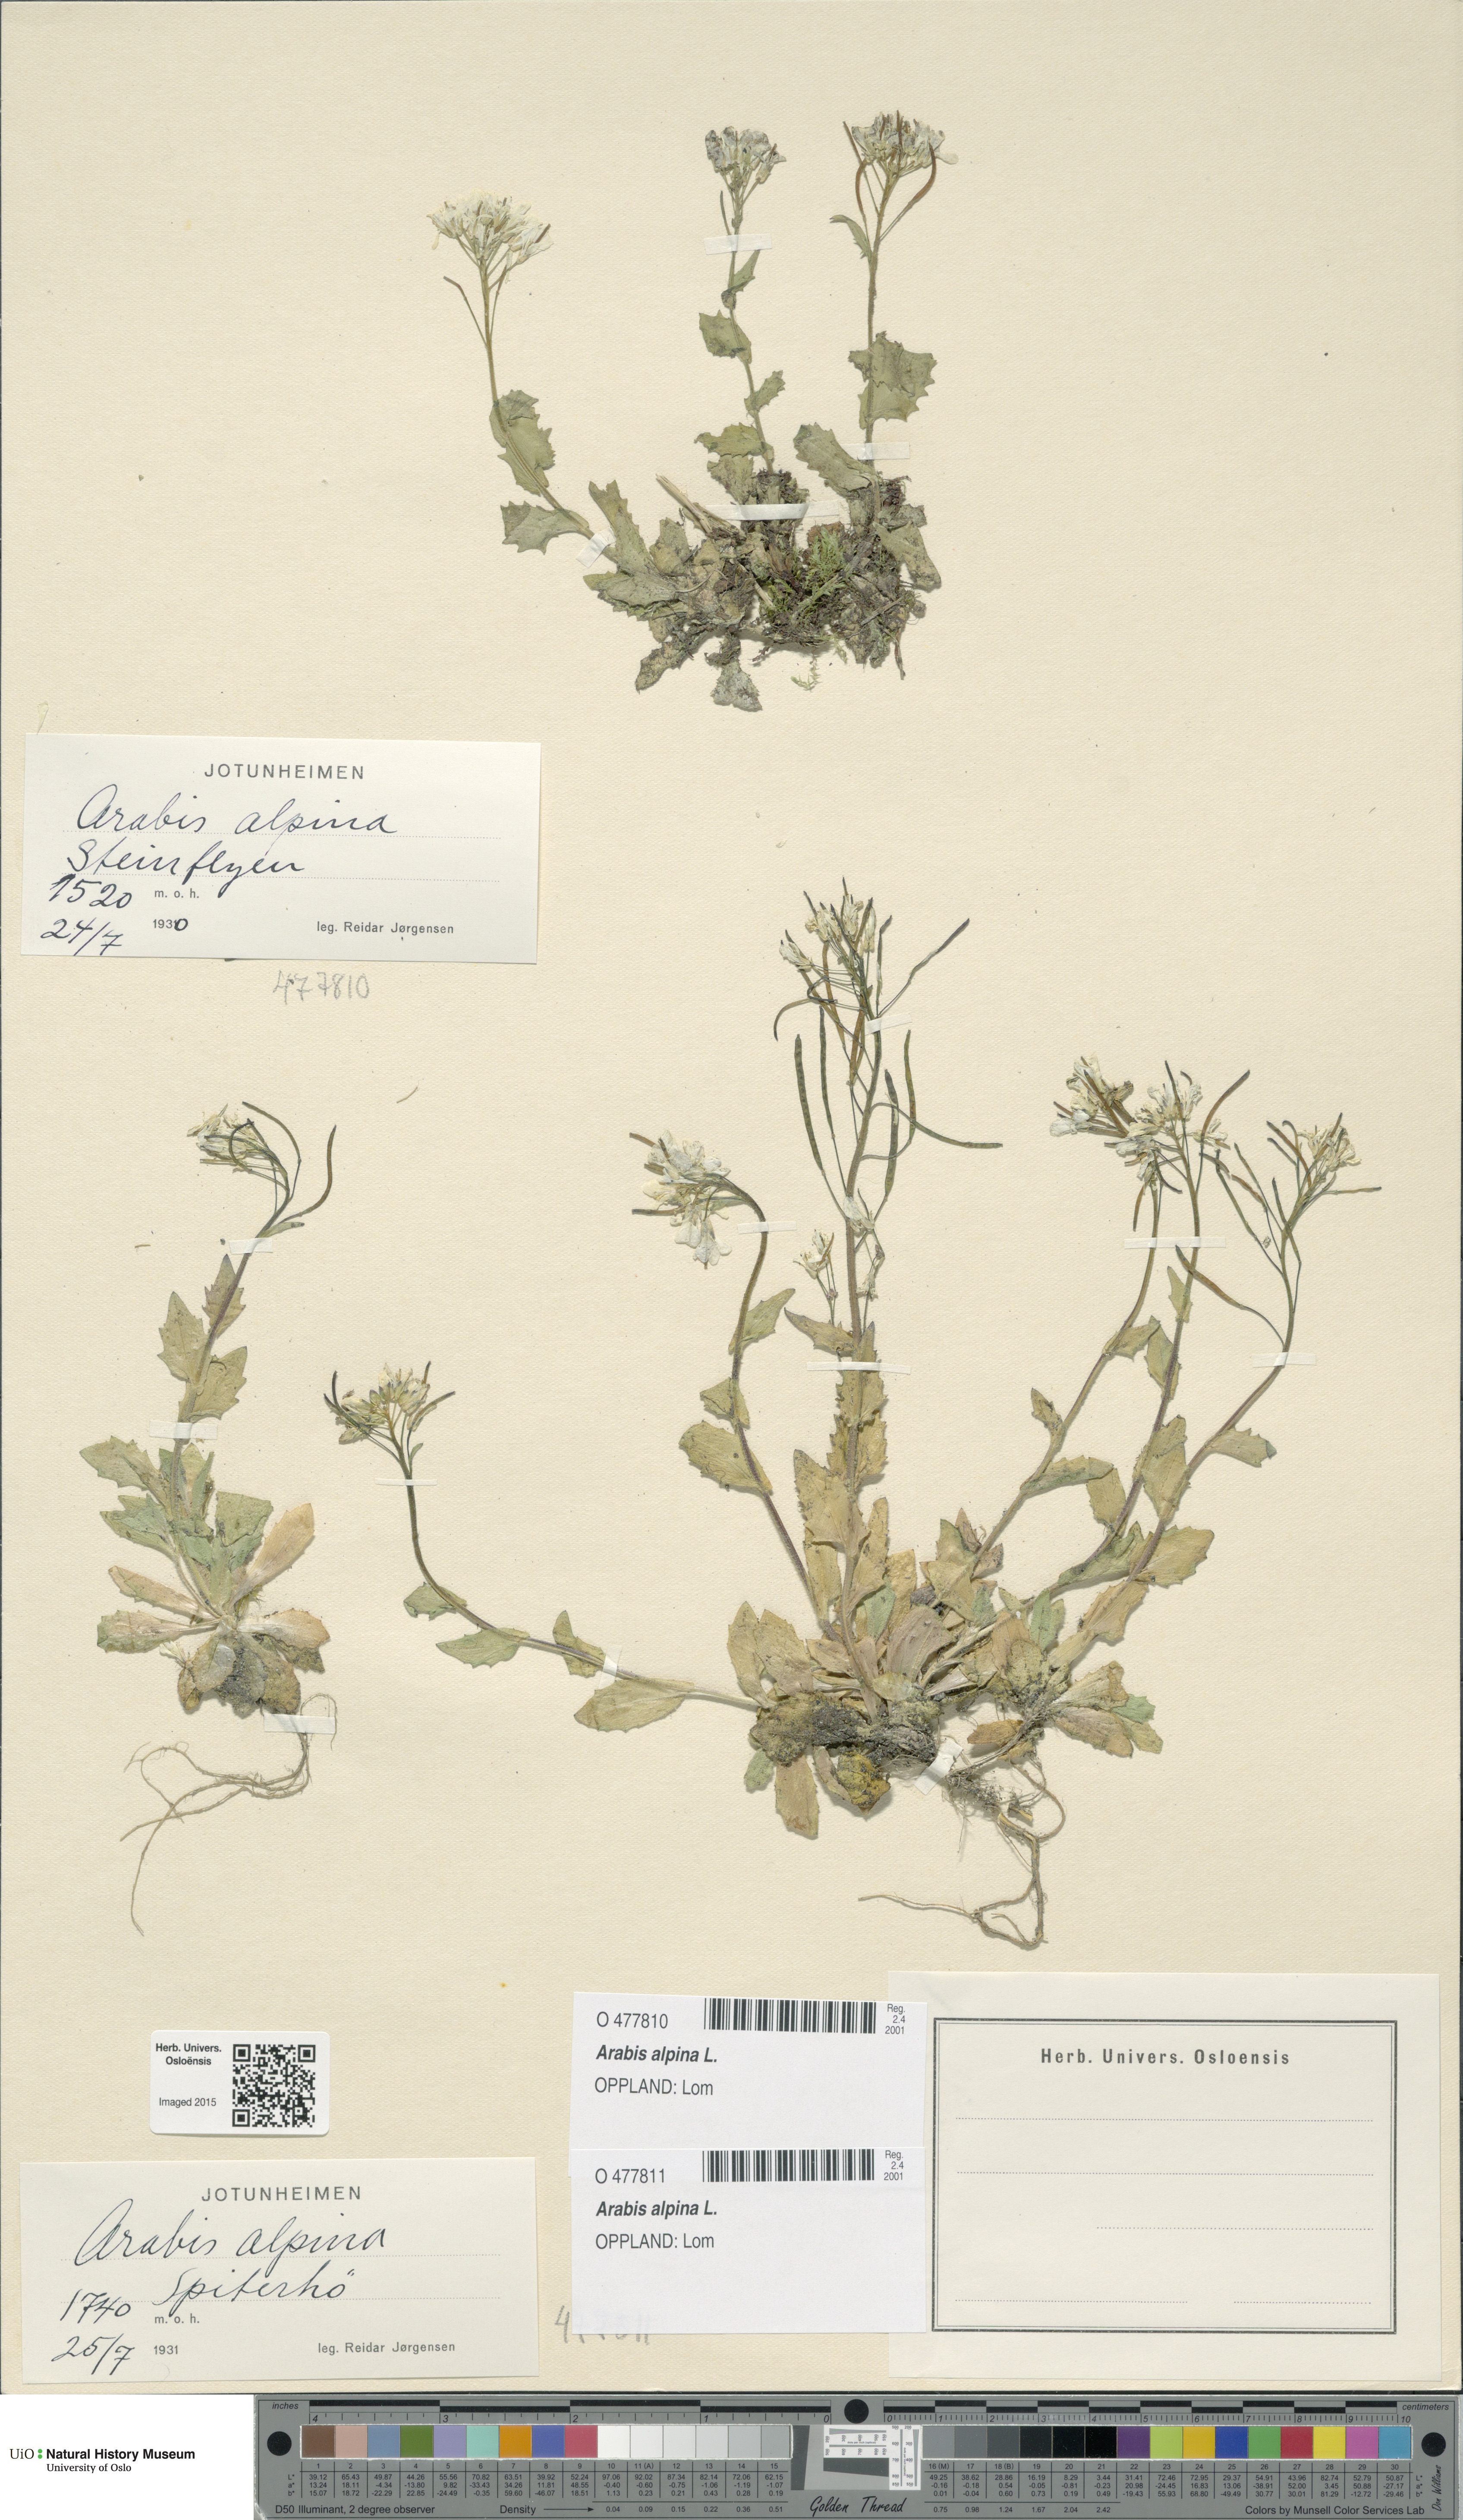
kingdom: Plantae
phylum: Tracheophyta
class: Magnoliopsida
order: Brassicales
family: Brassicaceae
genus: Arabis
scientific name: Arabis alpina
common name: Alpine rock-cress
